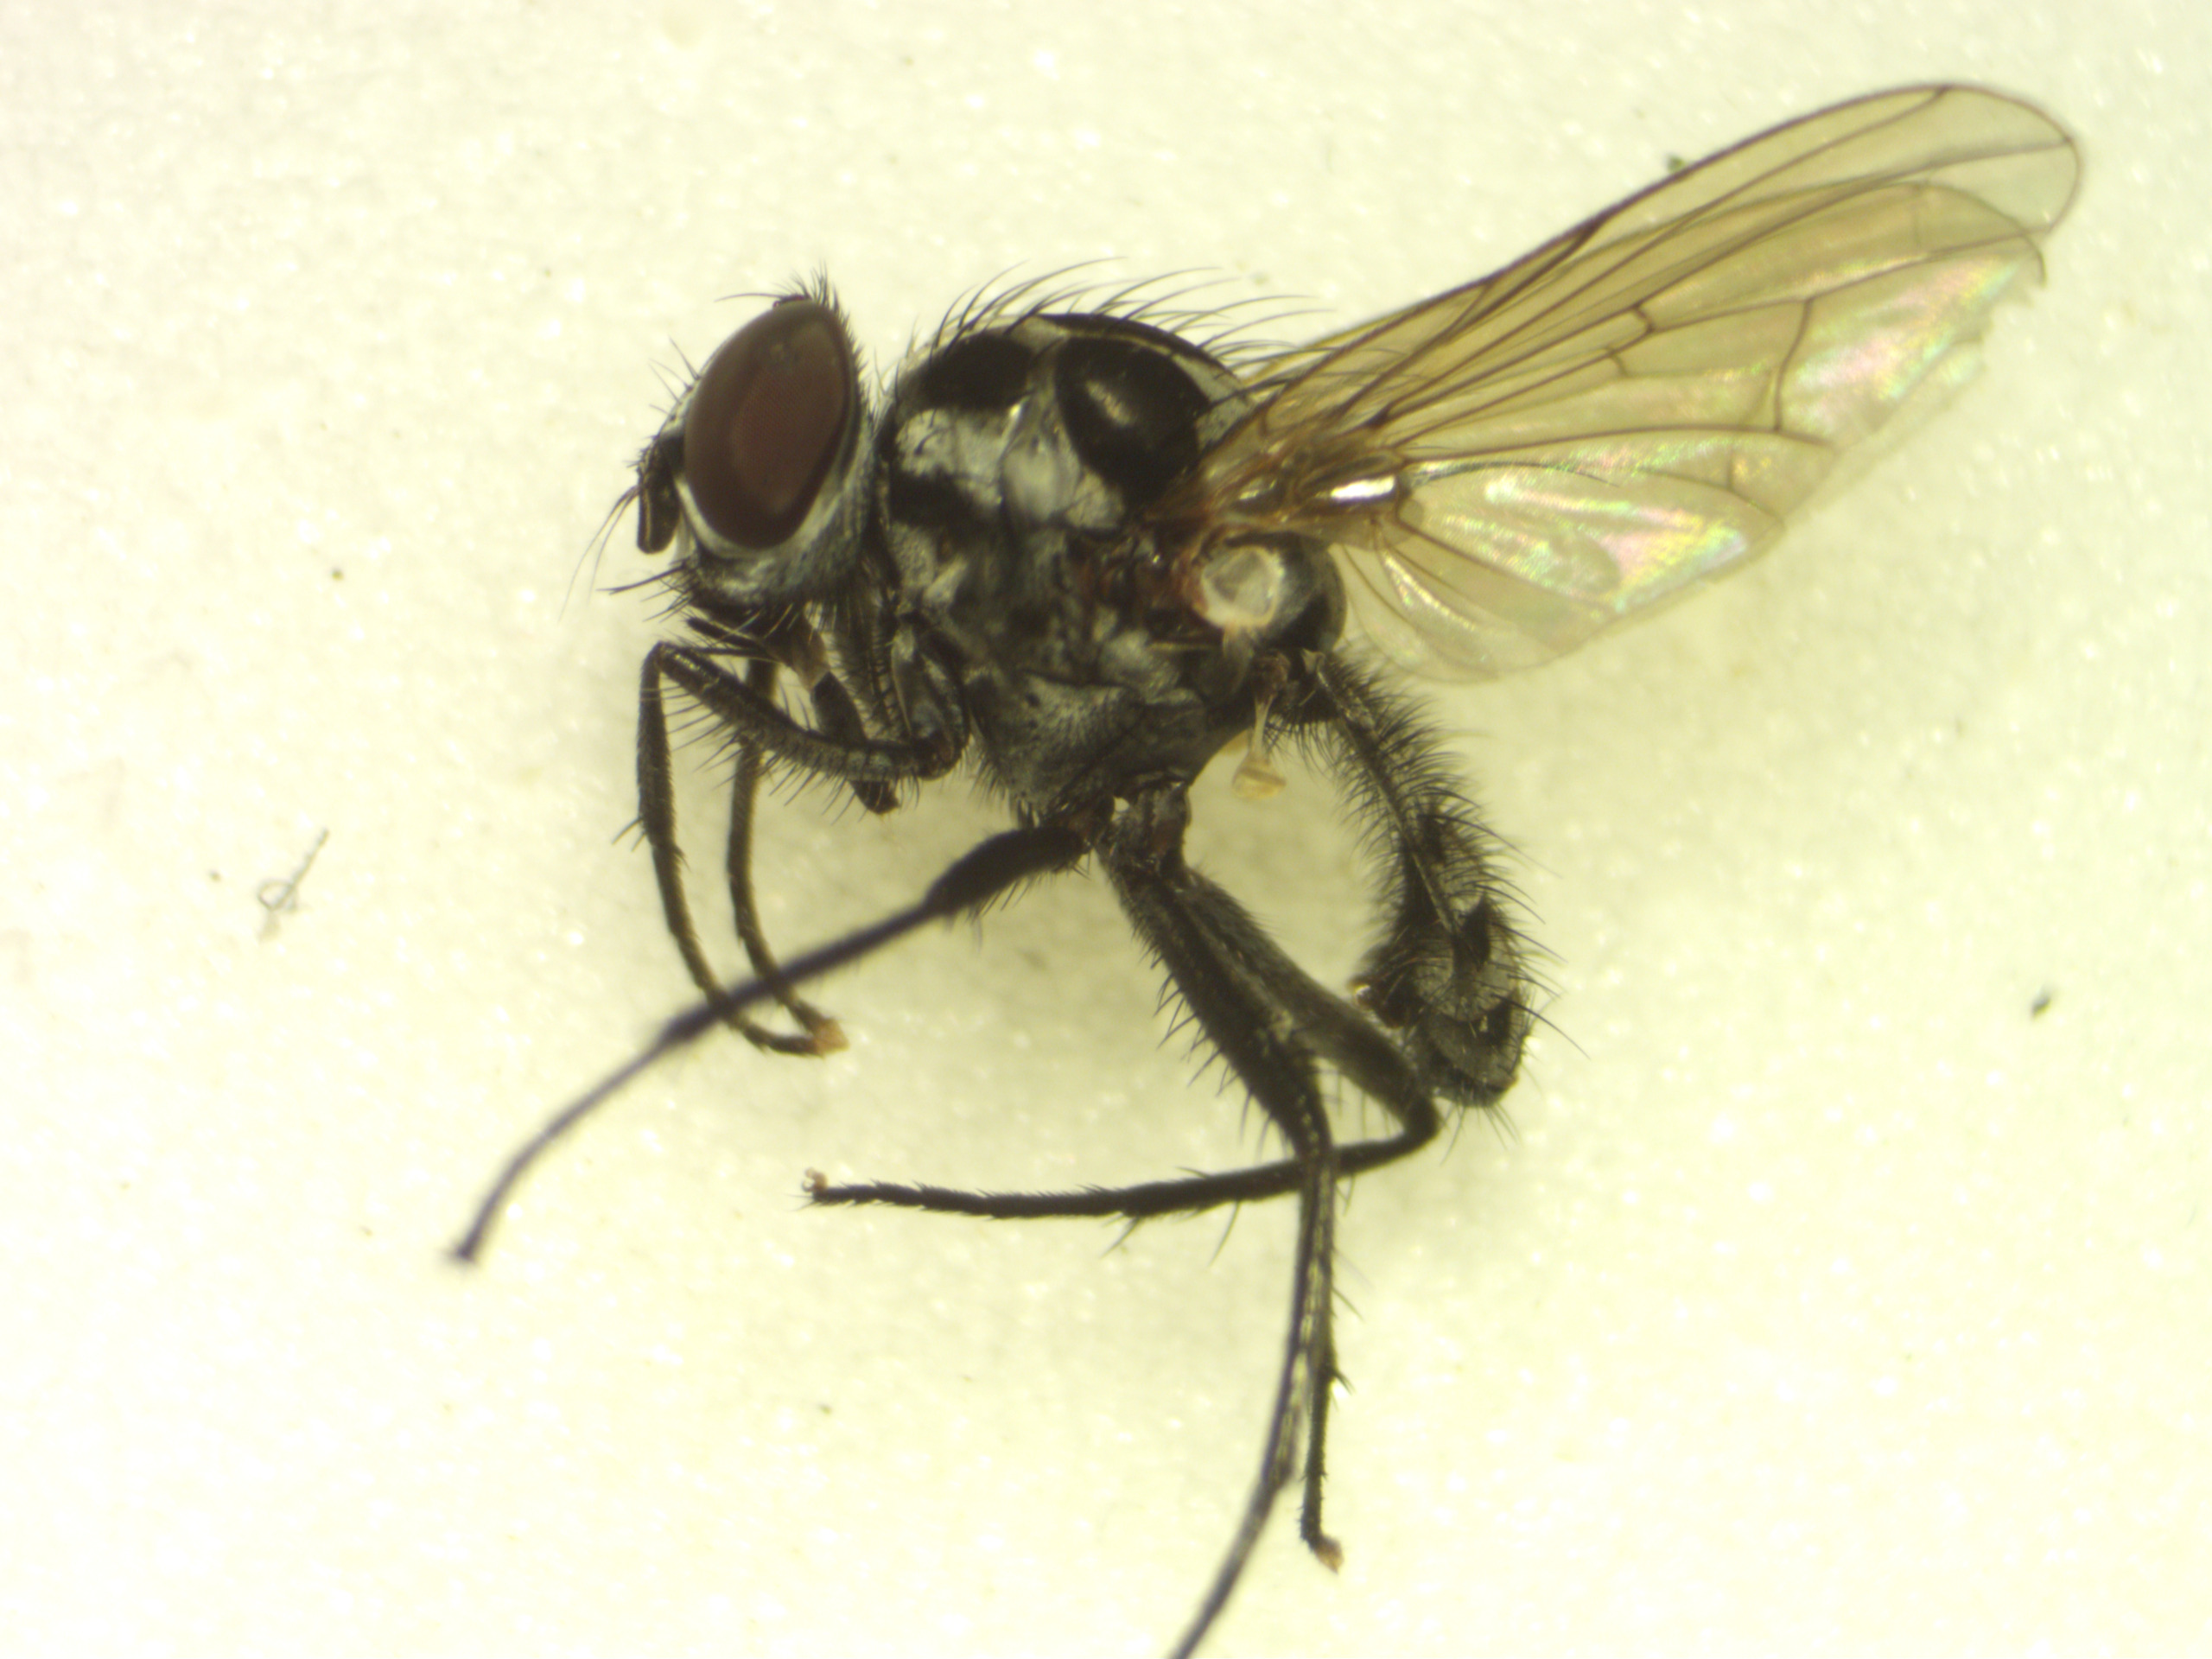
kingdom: Animalia
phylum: Arthropoda
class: Insecta
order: Diptera
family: Anthomyiidae
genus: Anthomyia
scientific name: Anthomyia procellaris
